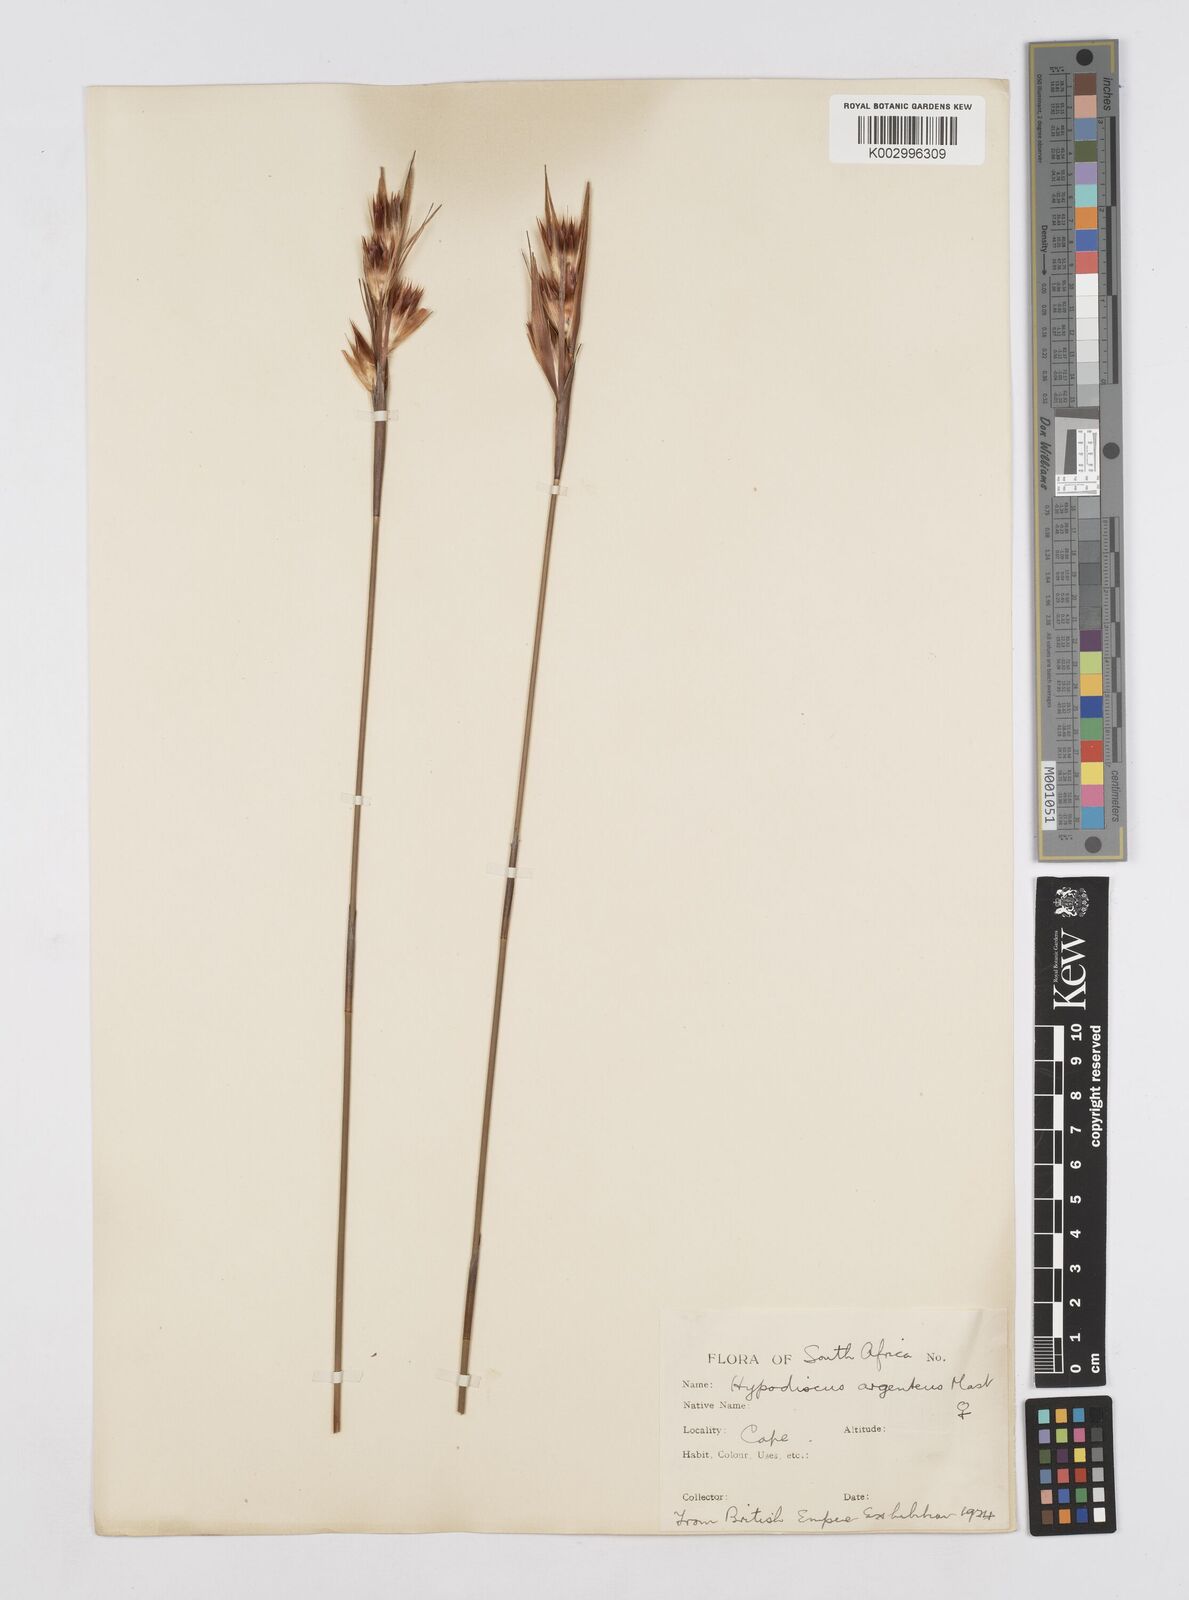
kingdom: Plantae
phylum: Tracheophyta
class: Liliopsida
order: Poales
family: Restionaceae
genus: Hypodiscus
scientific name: Hypodiscus argenteus
